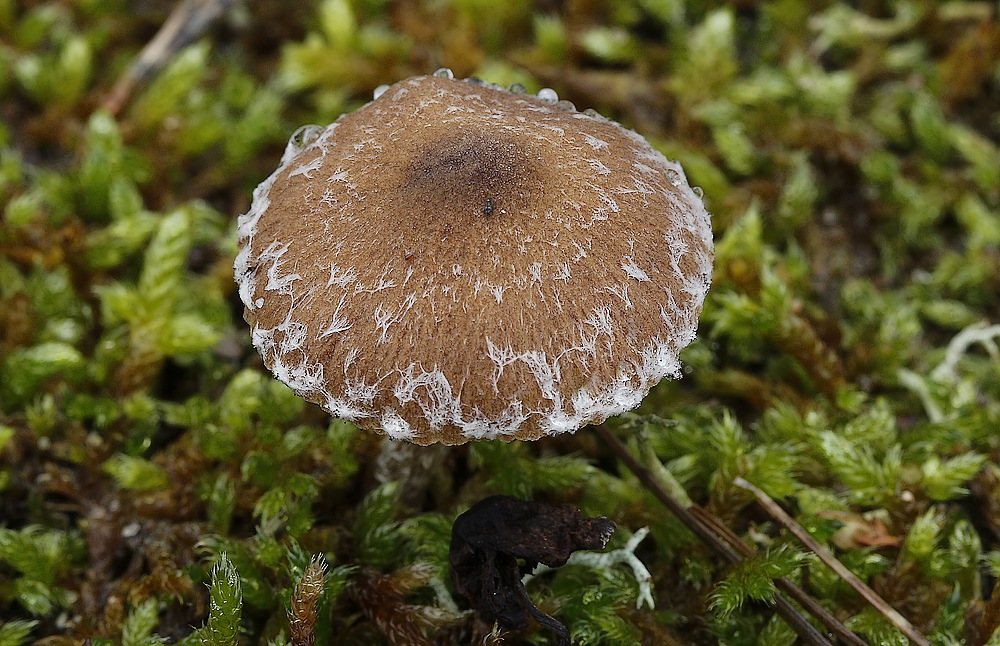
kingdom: Fungi
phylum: Basidiomycota
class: Agaricomycetes
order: Agaricales
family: Psathyrellaceae
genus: Psathyrella
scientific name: Psathyrella
